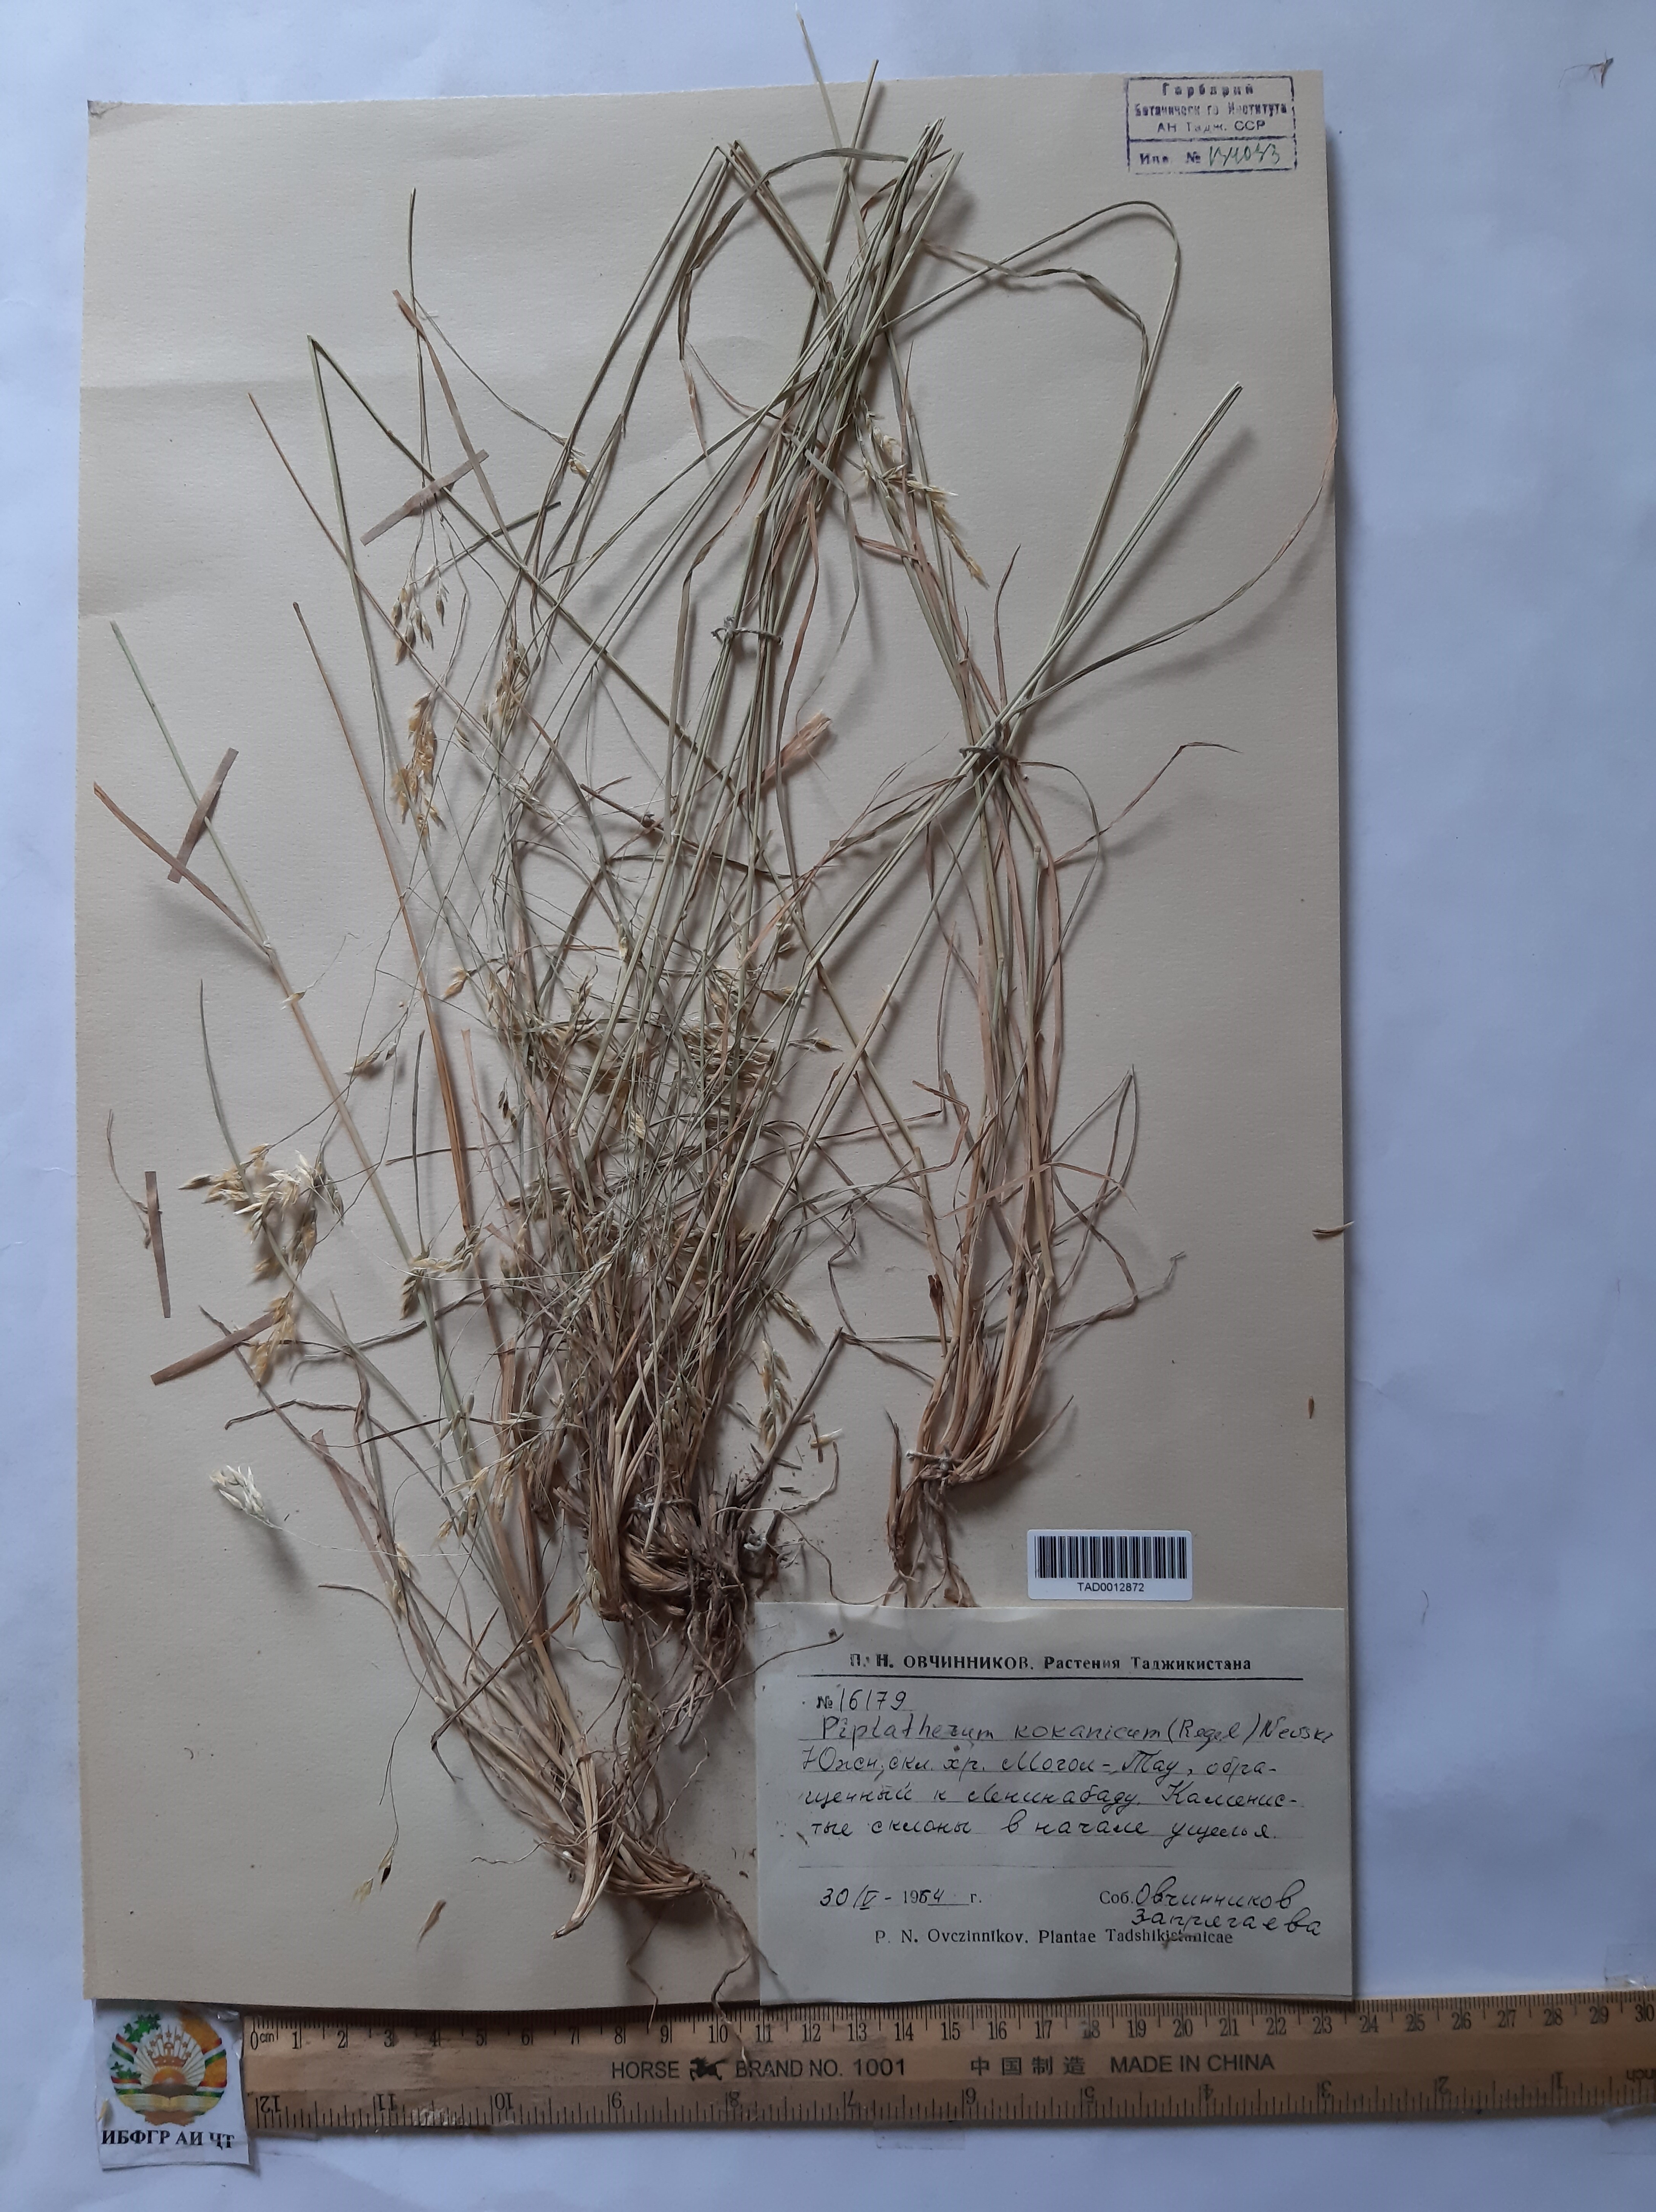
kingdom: Plantae
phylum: Tracheophyta
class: Liliopsida
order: Poales
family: Poaceae
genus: Piptatherum
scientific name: Piptatherum songaricum
